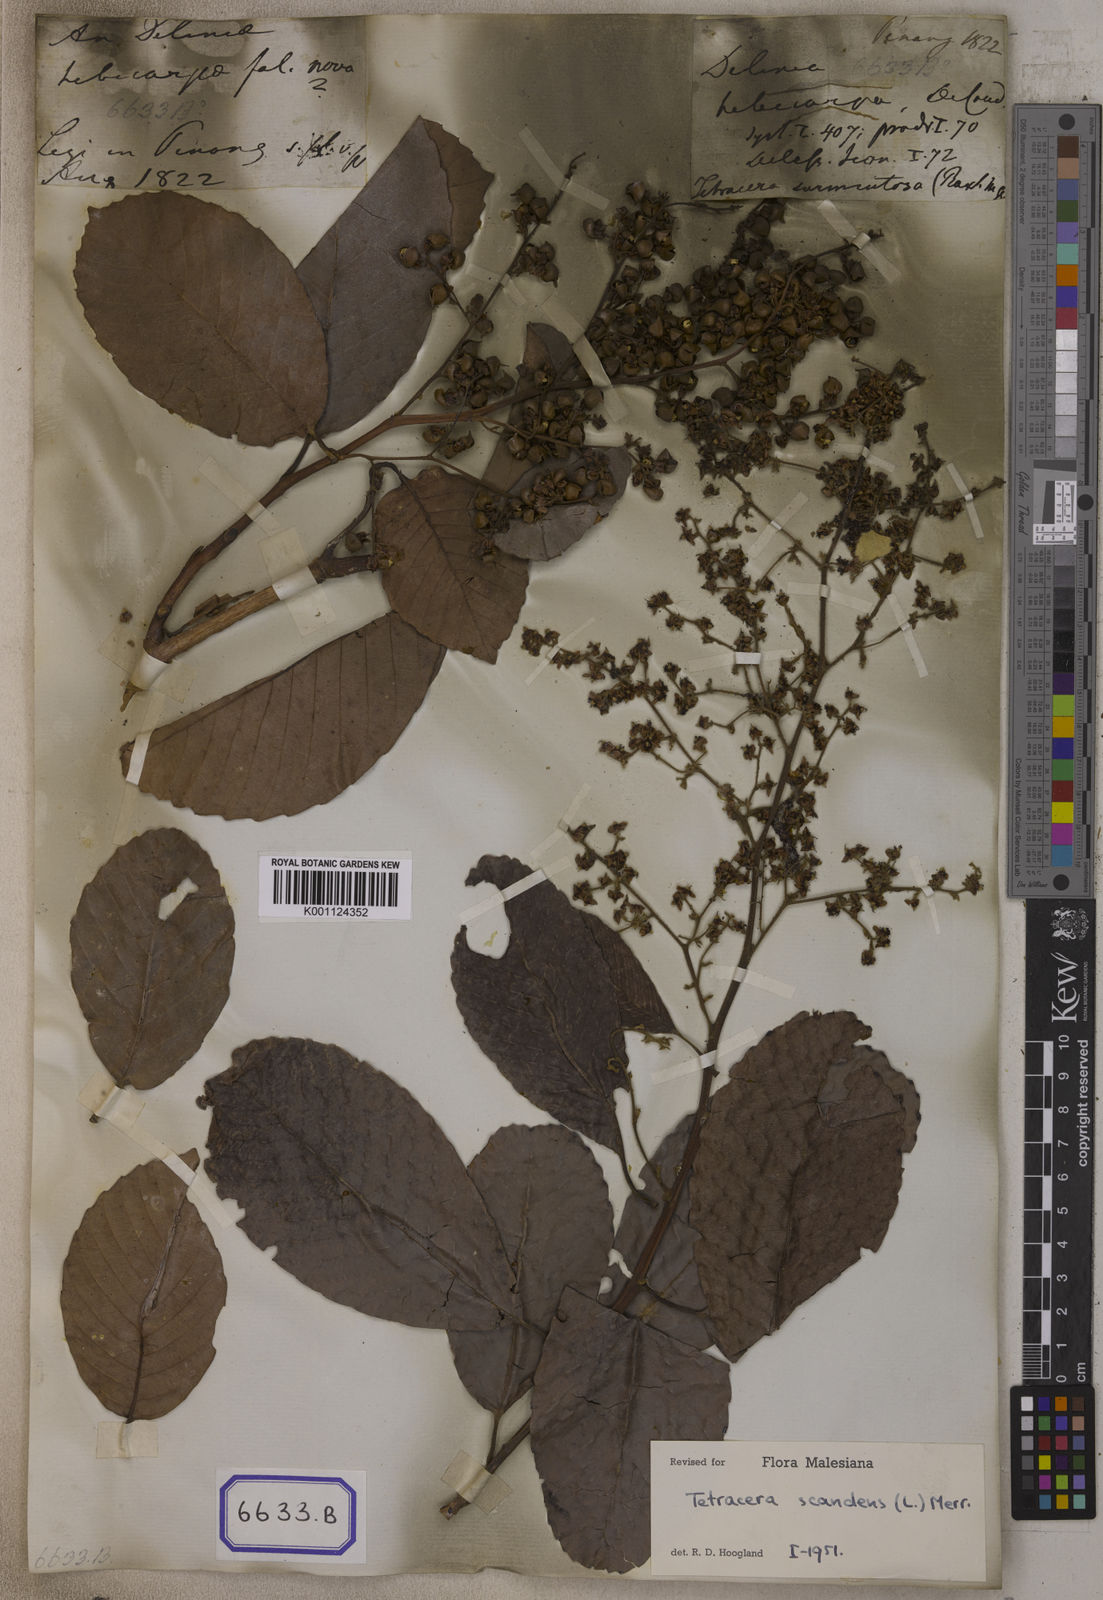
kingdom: Plantae
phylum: Tracheophyta
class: Magnoliopsida
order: Dilleniales
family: Dilleniaceae
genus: Tetracera
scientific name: Tetracera scandens
